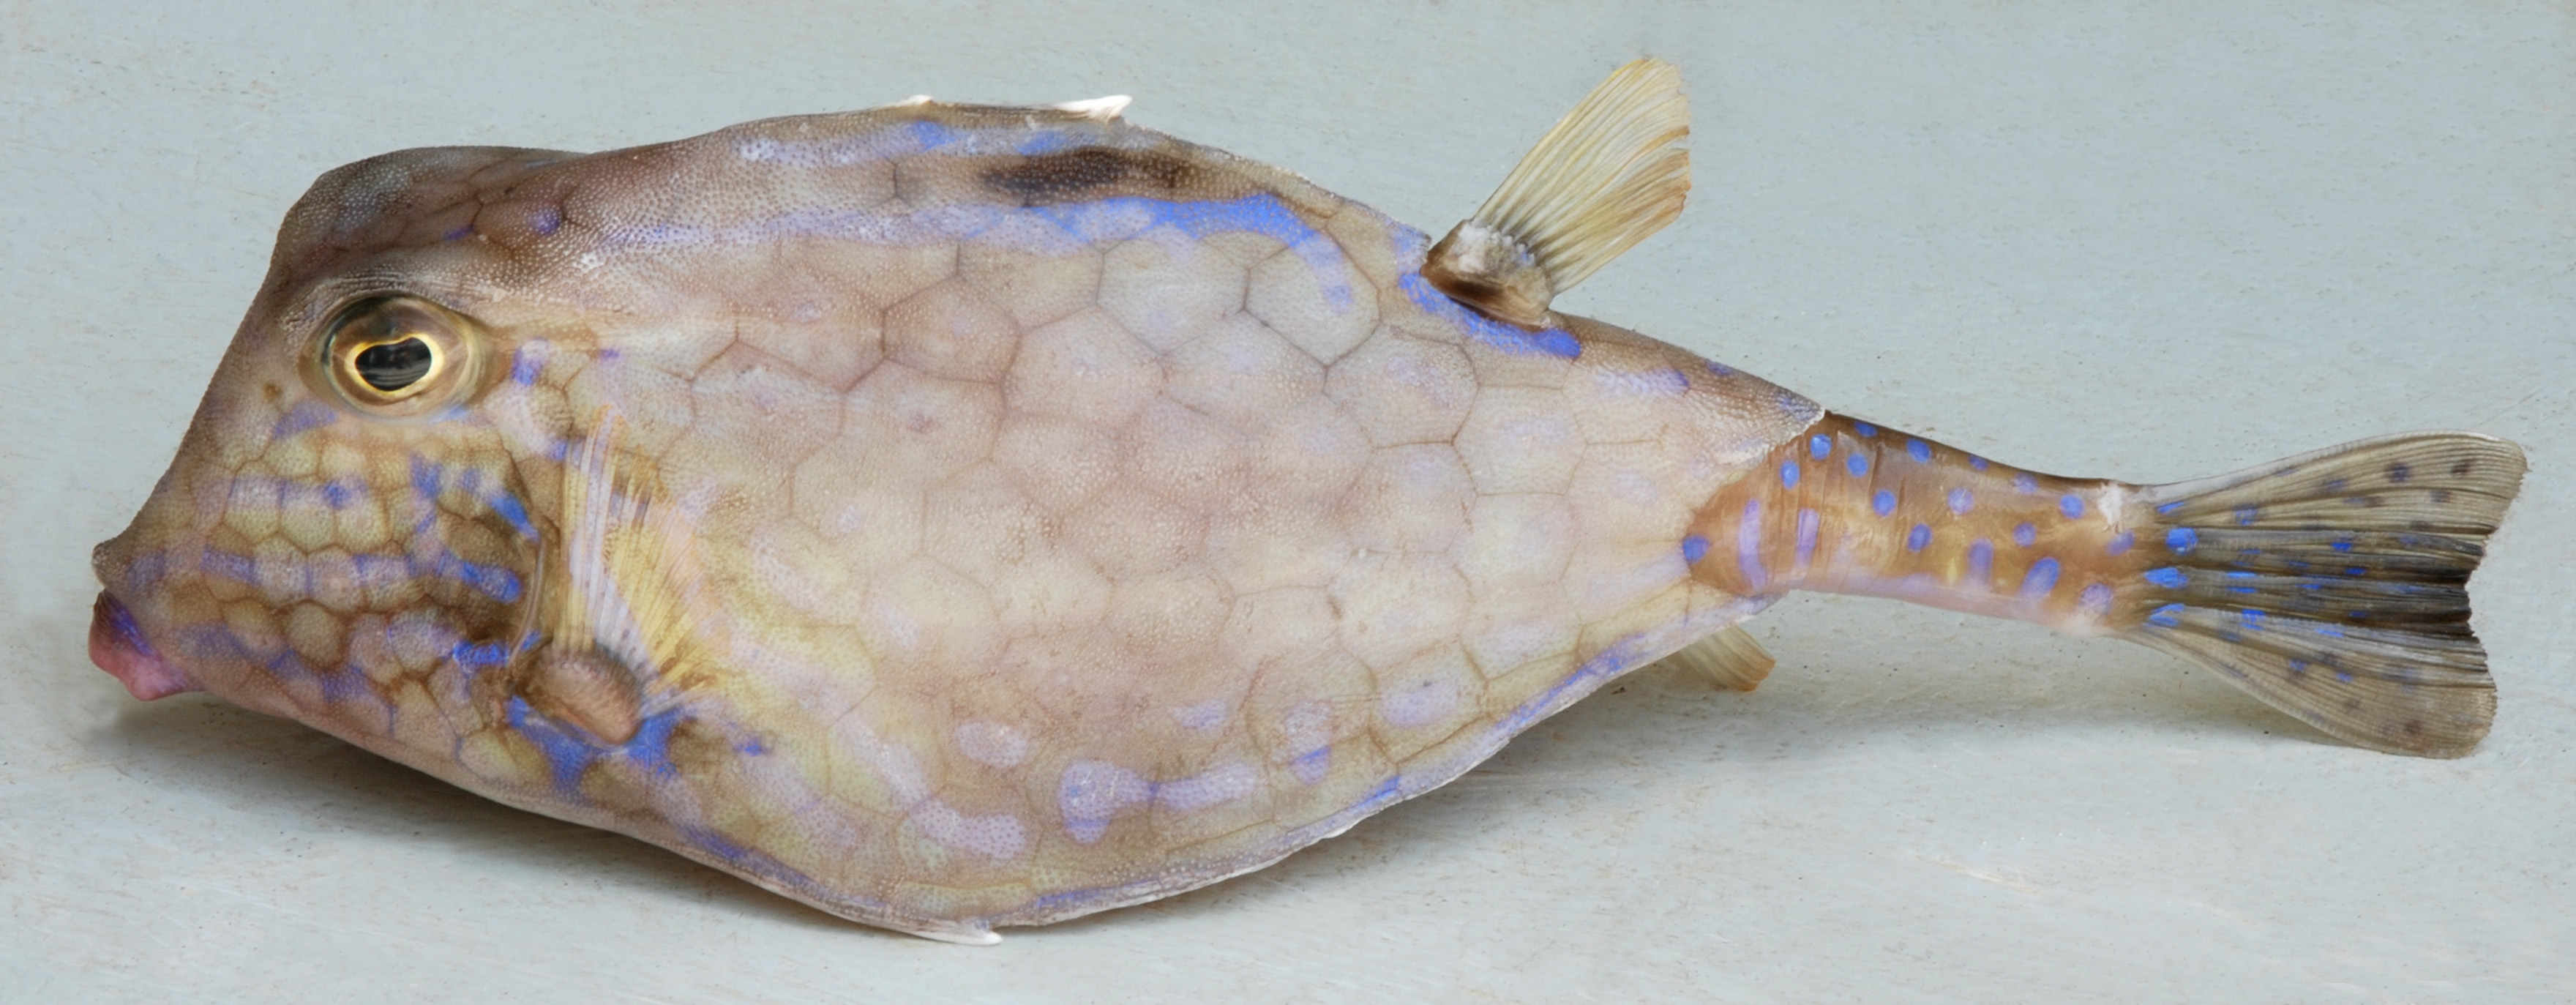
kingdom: Animalia
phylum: Chordata
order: Tetraodontiformes
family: Ostraciidae
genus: Tetrosomus
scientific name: Tetrosomus concatenatus
